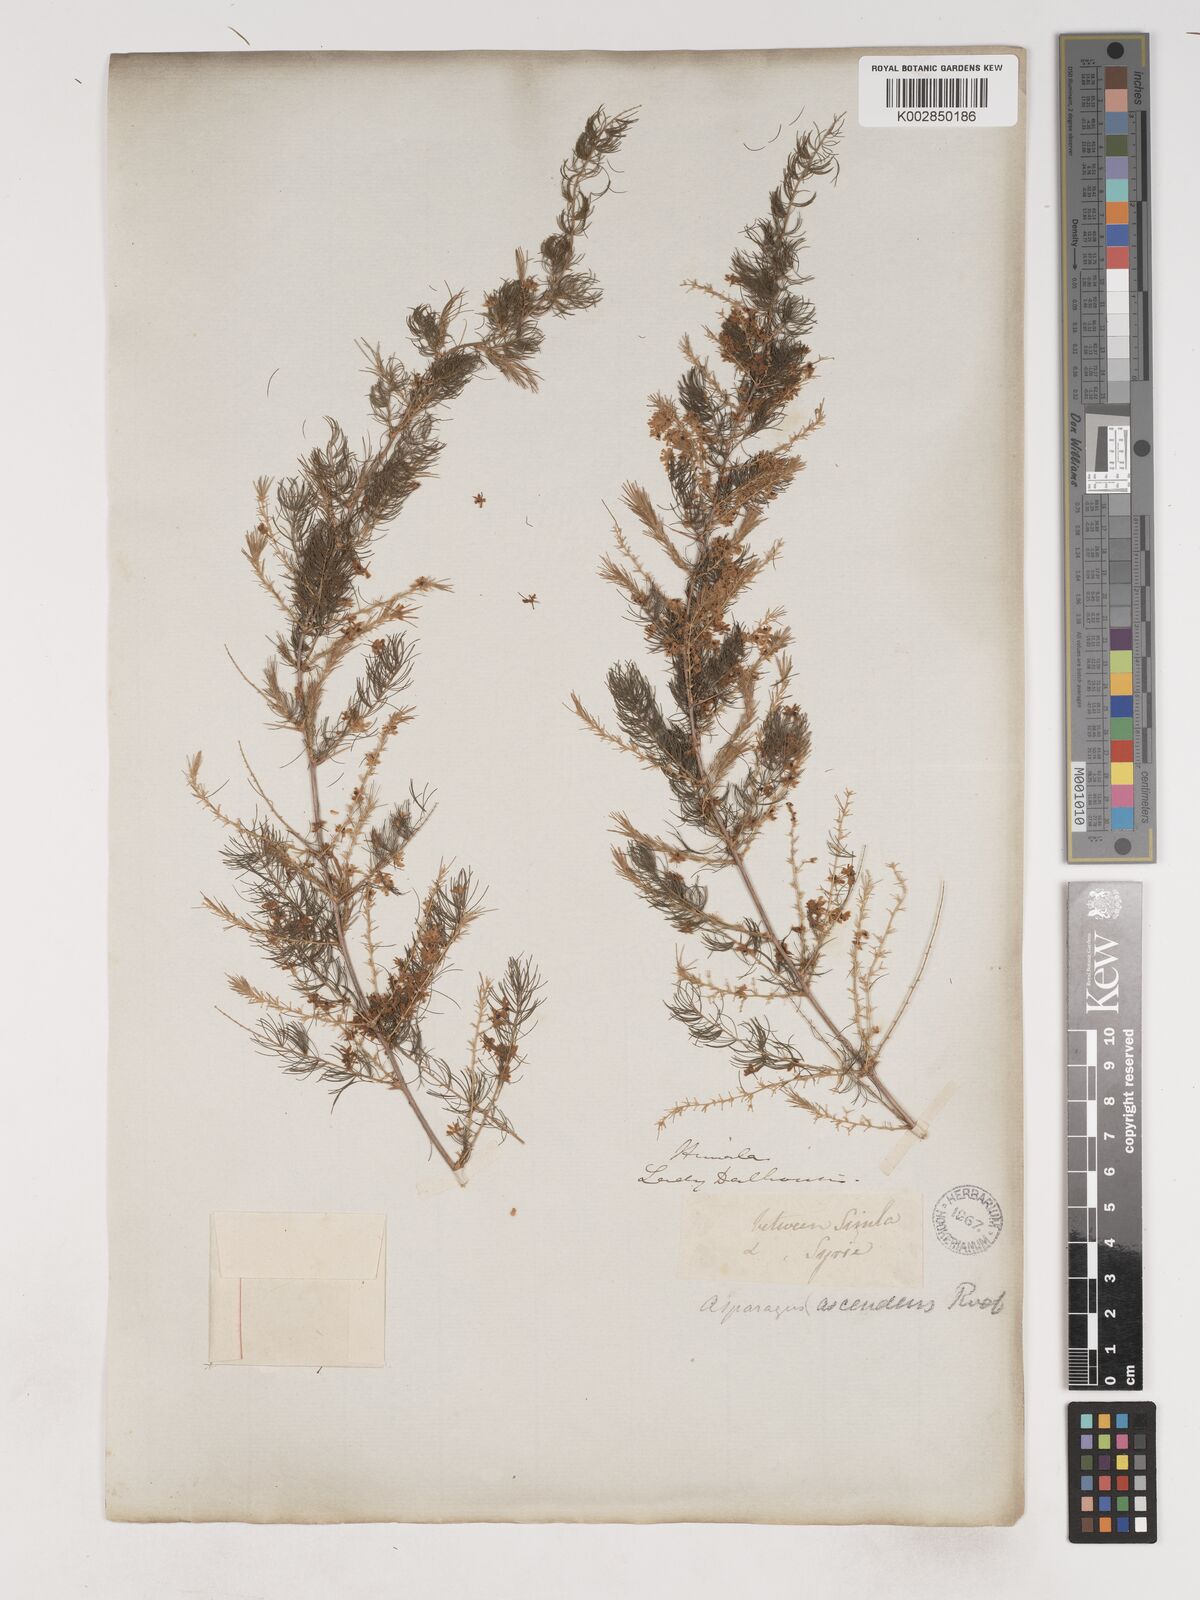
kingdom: Plantae
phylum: Tracheophyta
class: Liliopsida
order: Asparagales
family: Asparagaceae
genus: Asparagus
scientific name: Asparagus adscendens
